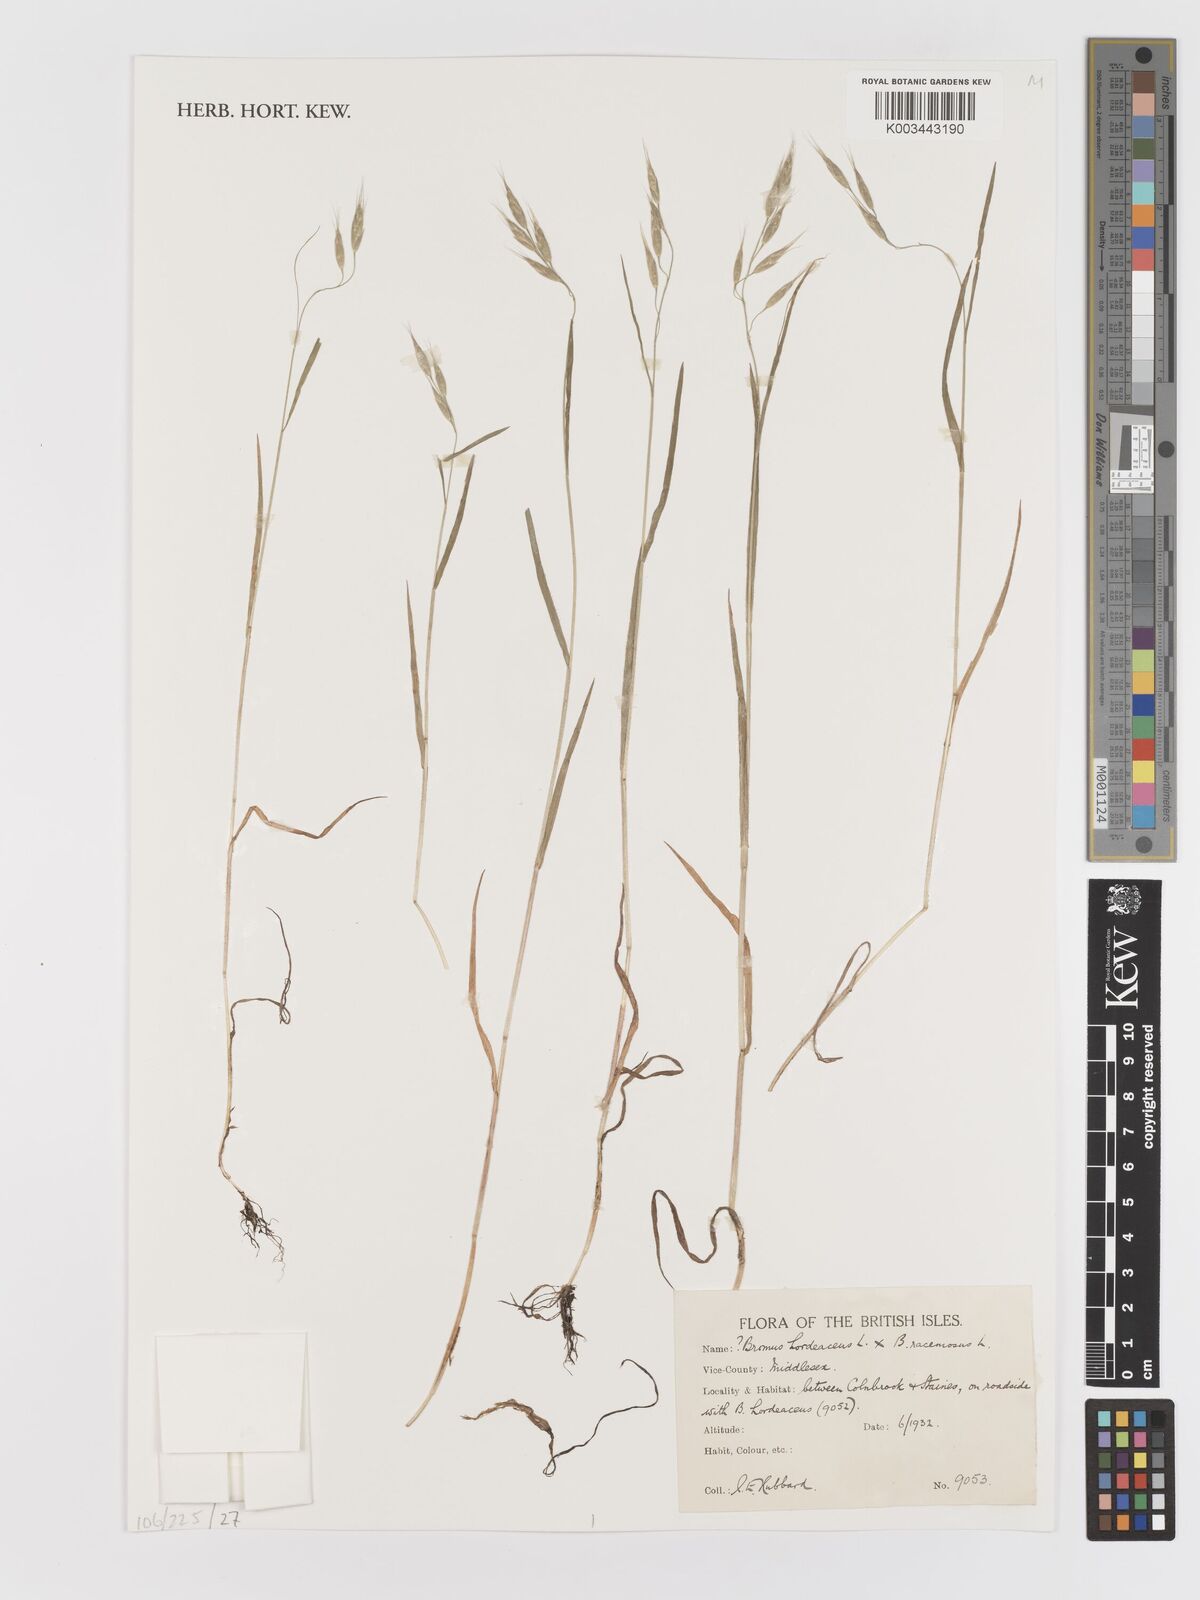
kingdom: Plantae
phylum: Tracheophyta
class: Liliopsida
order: Poales
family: Poaceae
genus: Bromus
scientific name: Bromus
